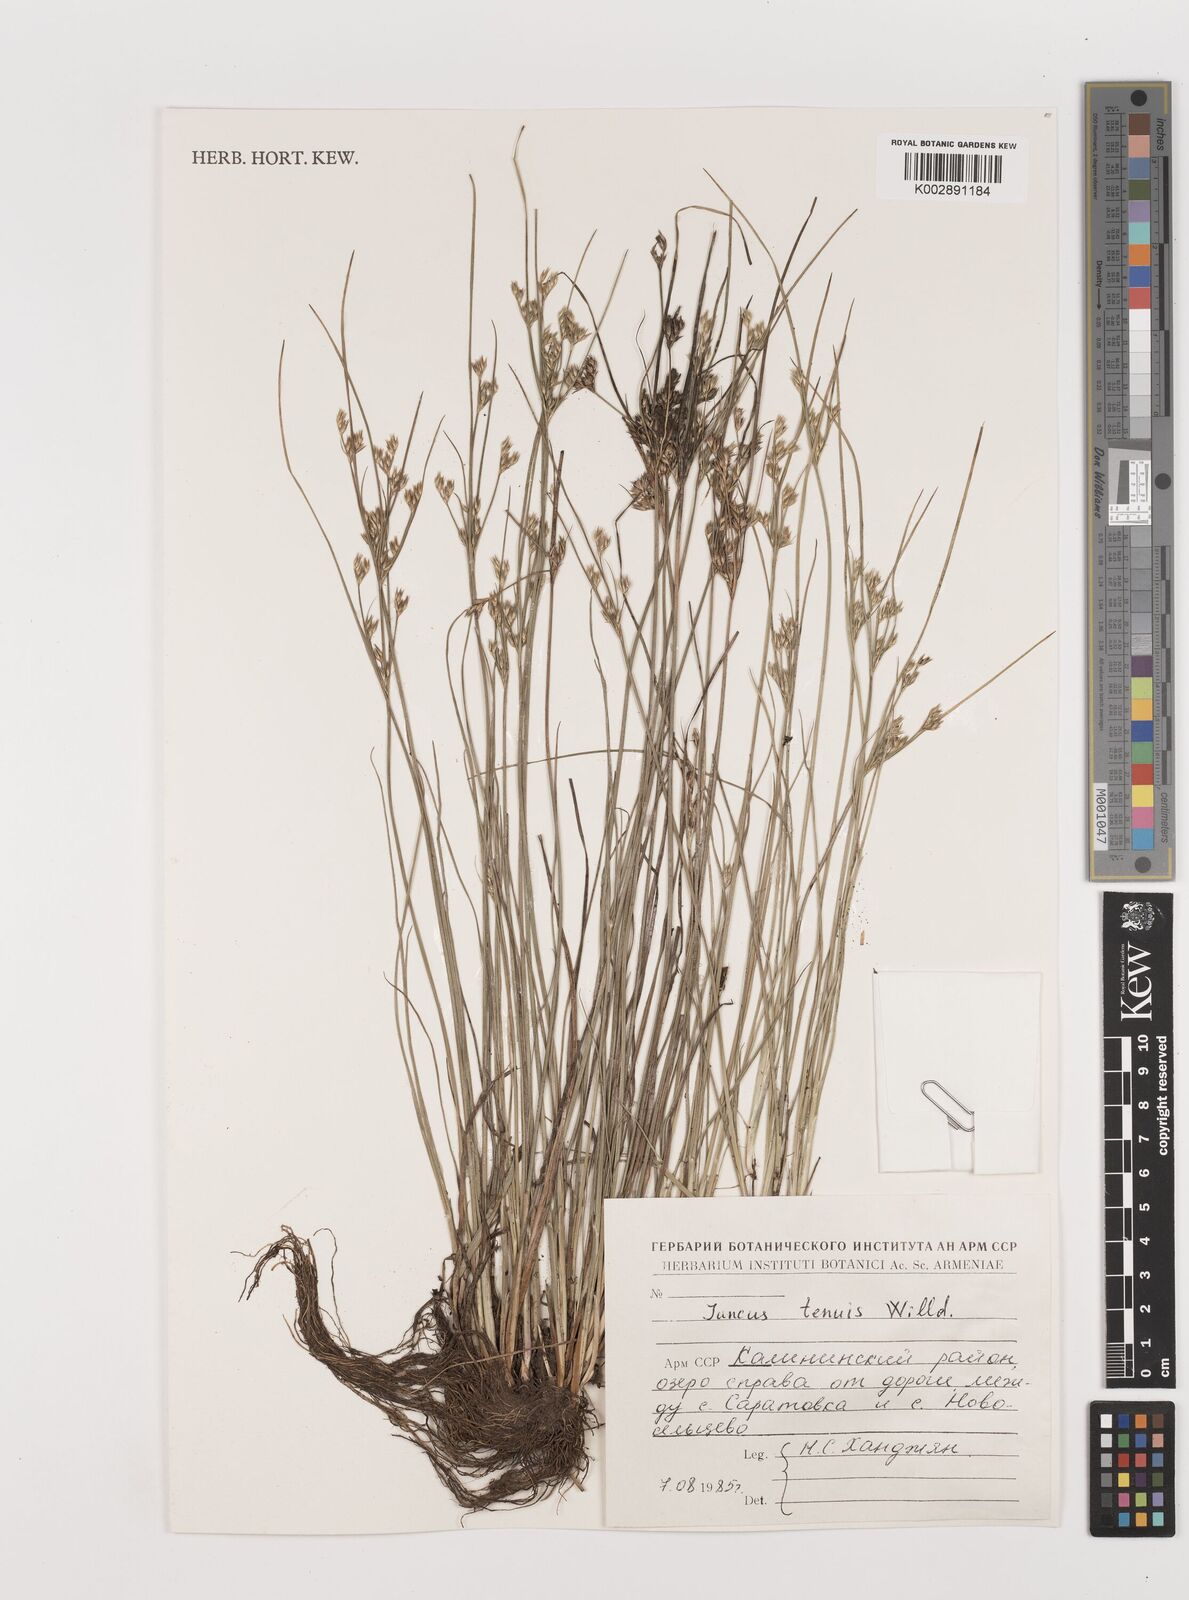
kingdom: Plantae
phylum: Tracheophyta
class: Liliopsida
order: Poales
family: Juncaceae
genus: Juncus
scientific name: Juncus tenuis
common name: Slender rush
